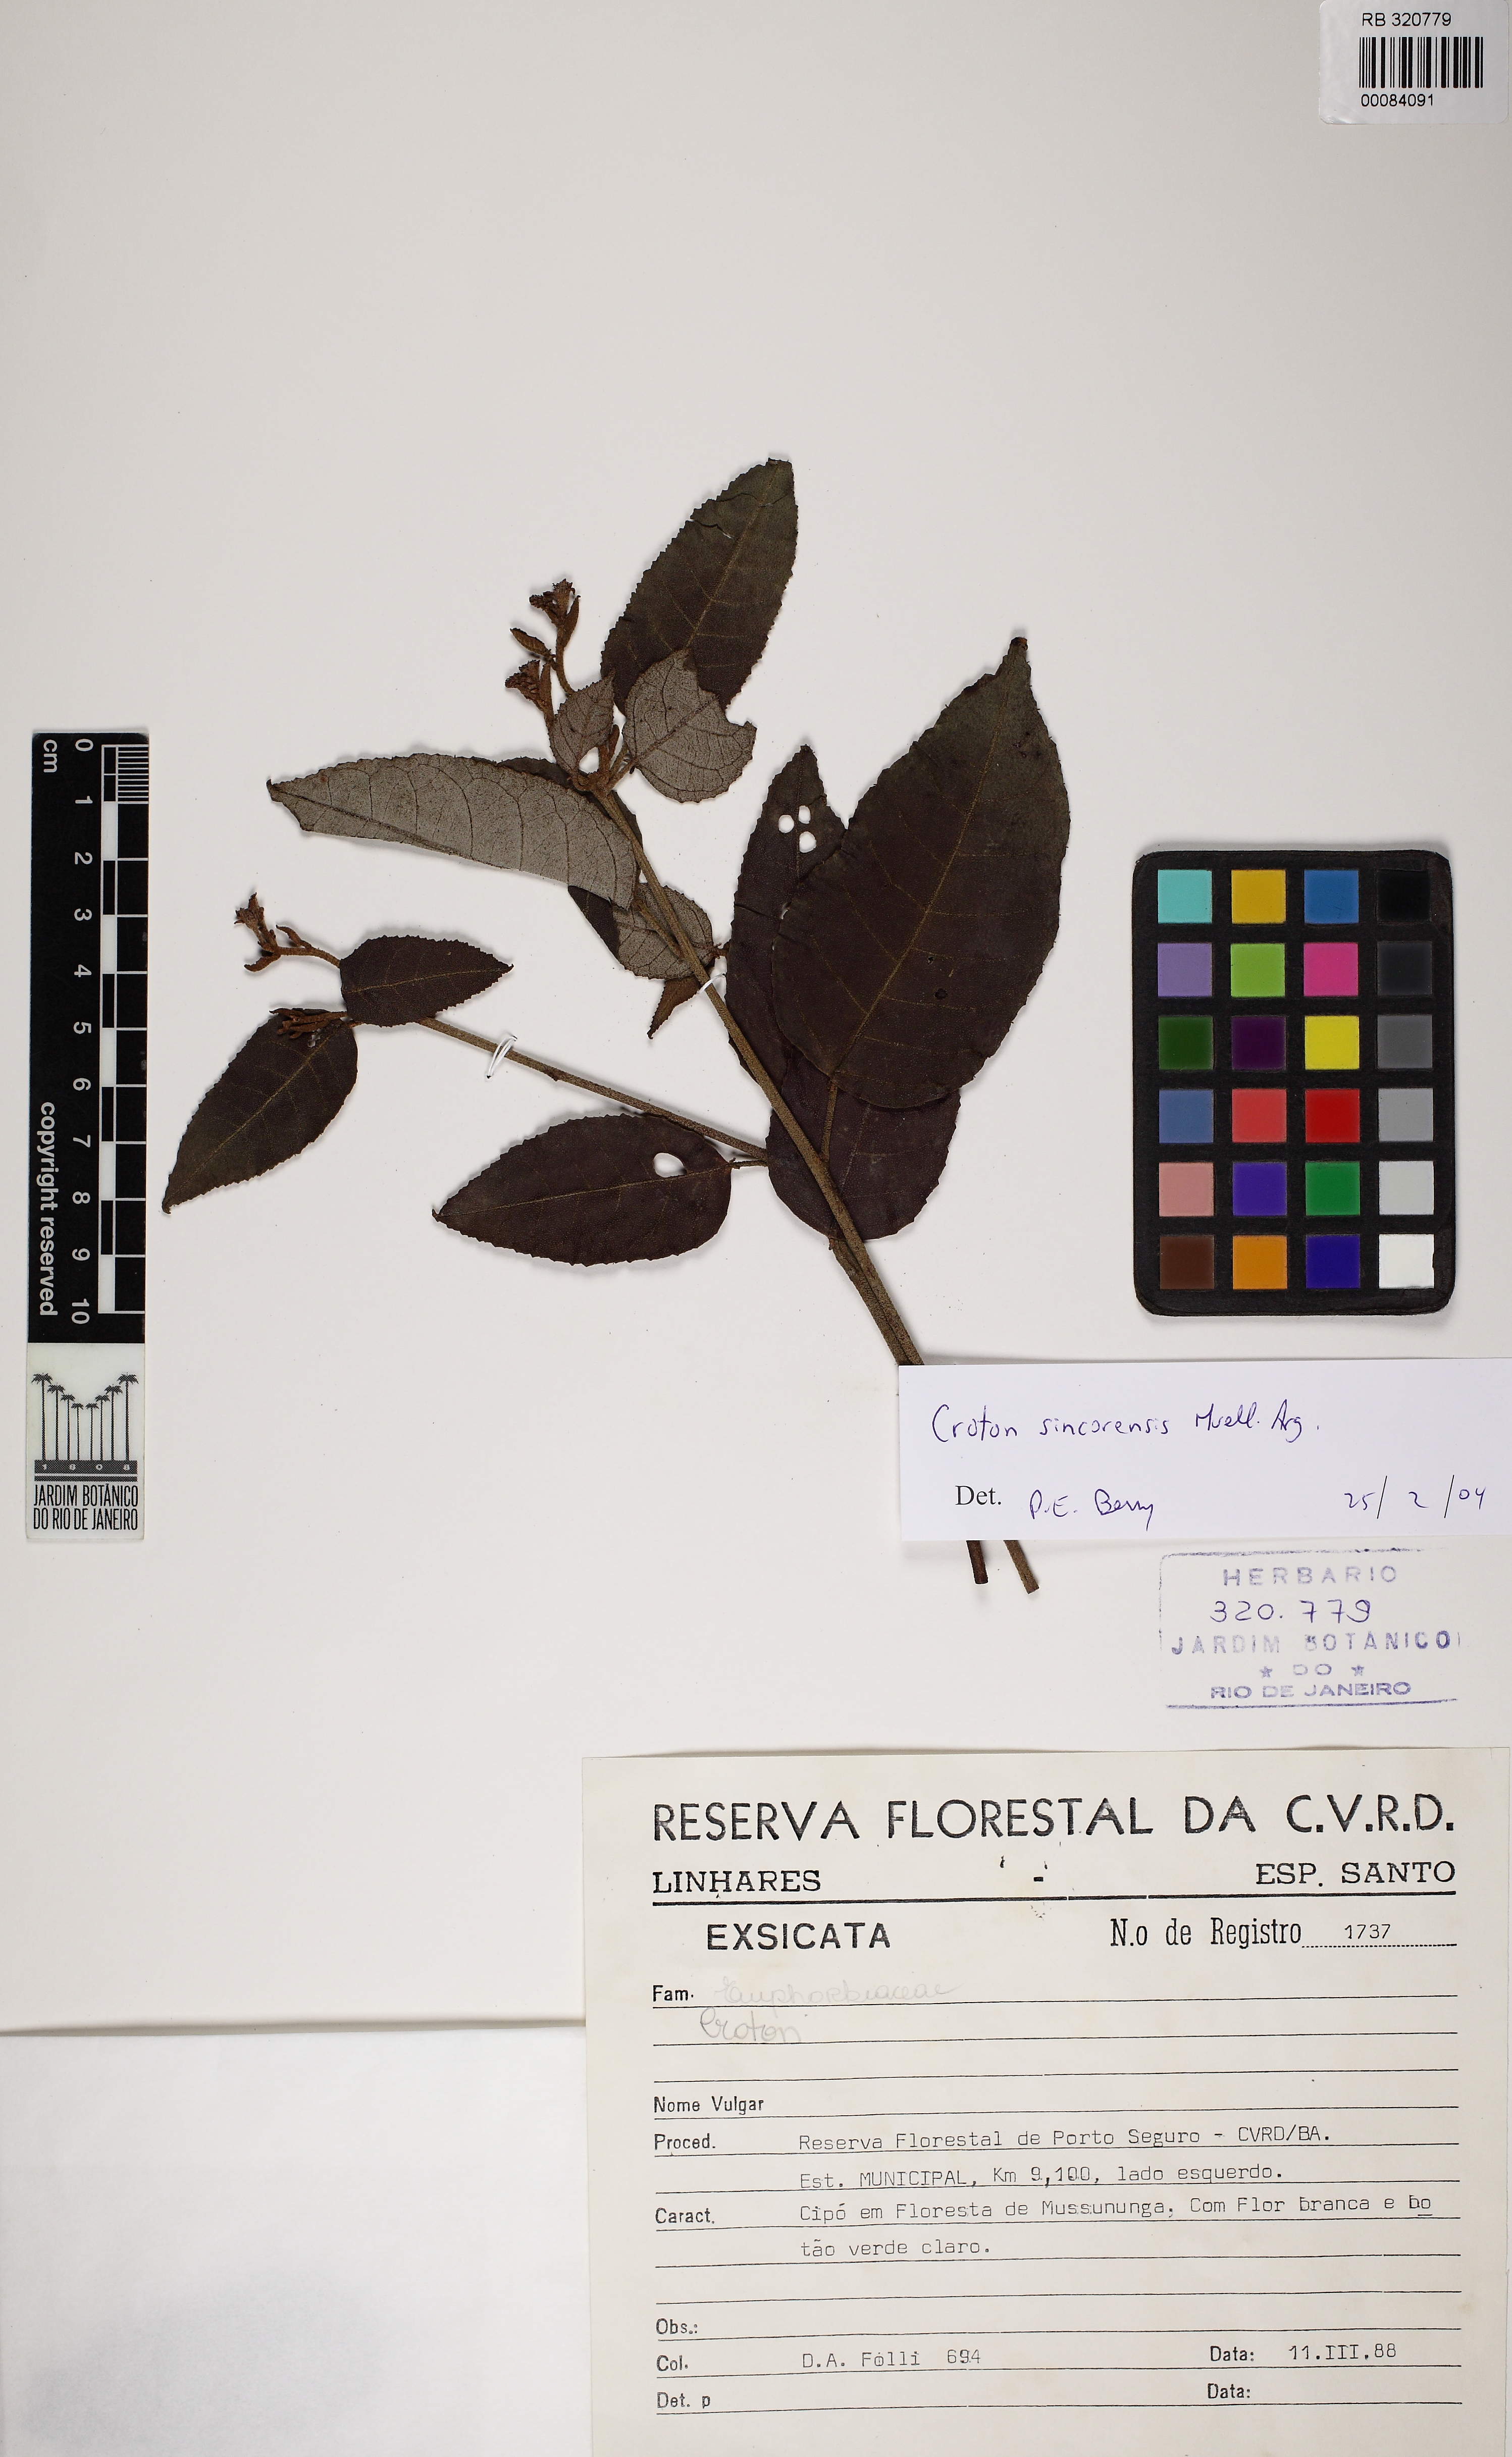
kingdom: Plantae
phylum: Tracheophyta
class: Magnoliopsida
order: Malpighiales
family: Euphorbiaceae
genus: Croton
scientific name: Croton sincorensis
